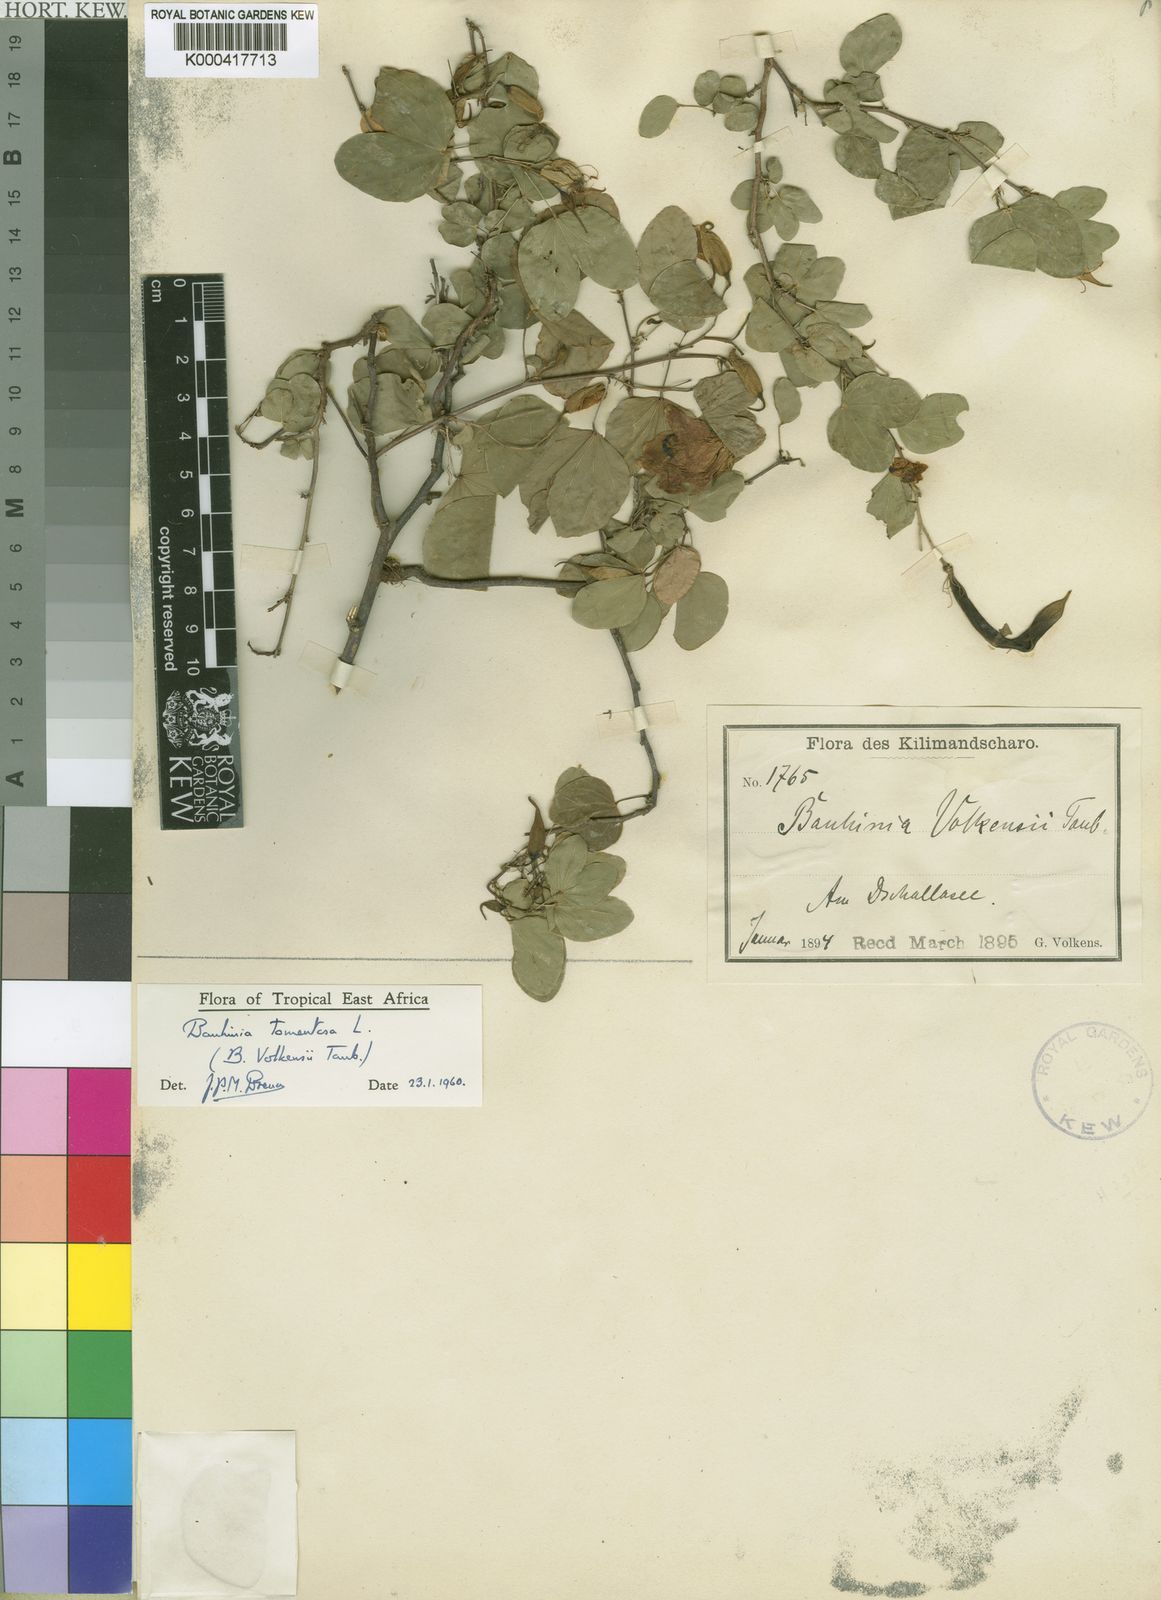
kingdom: Plantae
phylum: Tracheophyta
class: Magnoliopsida
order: Fabales
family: Fabaceae
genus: Bauhinia
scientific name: Bauhinia tomentosa
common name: Bell bauhinia
